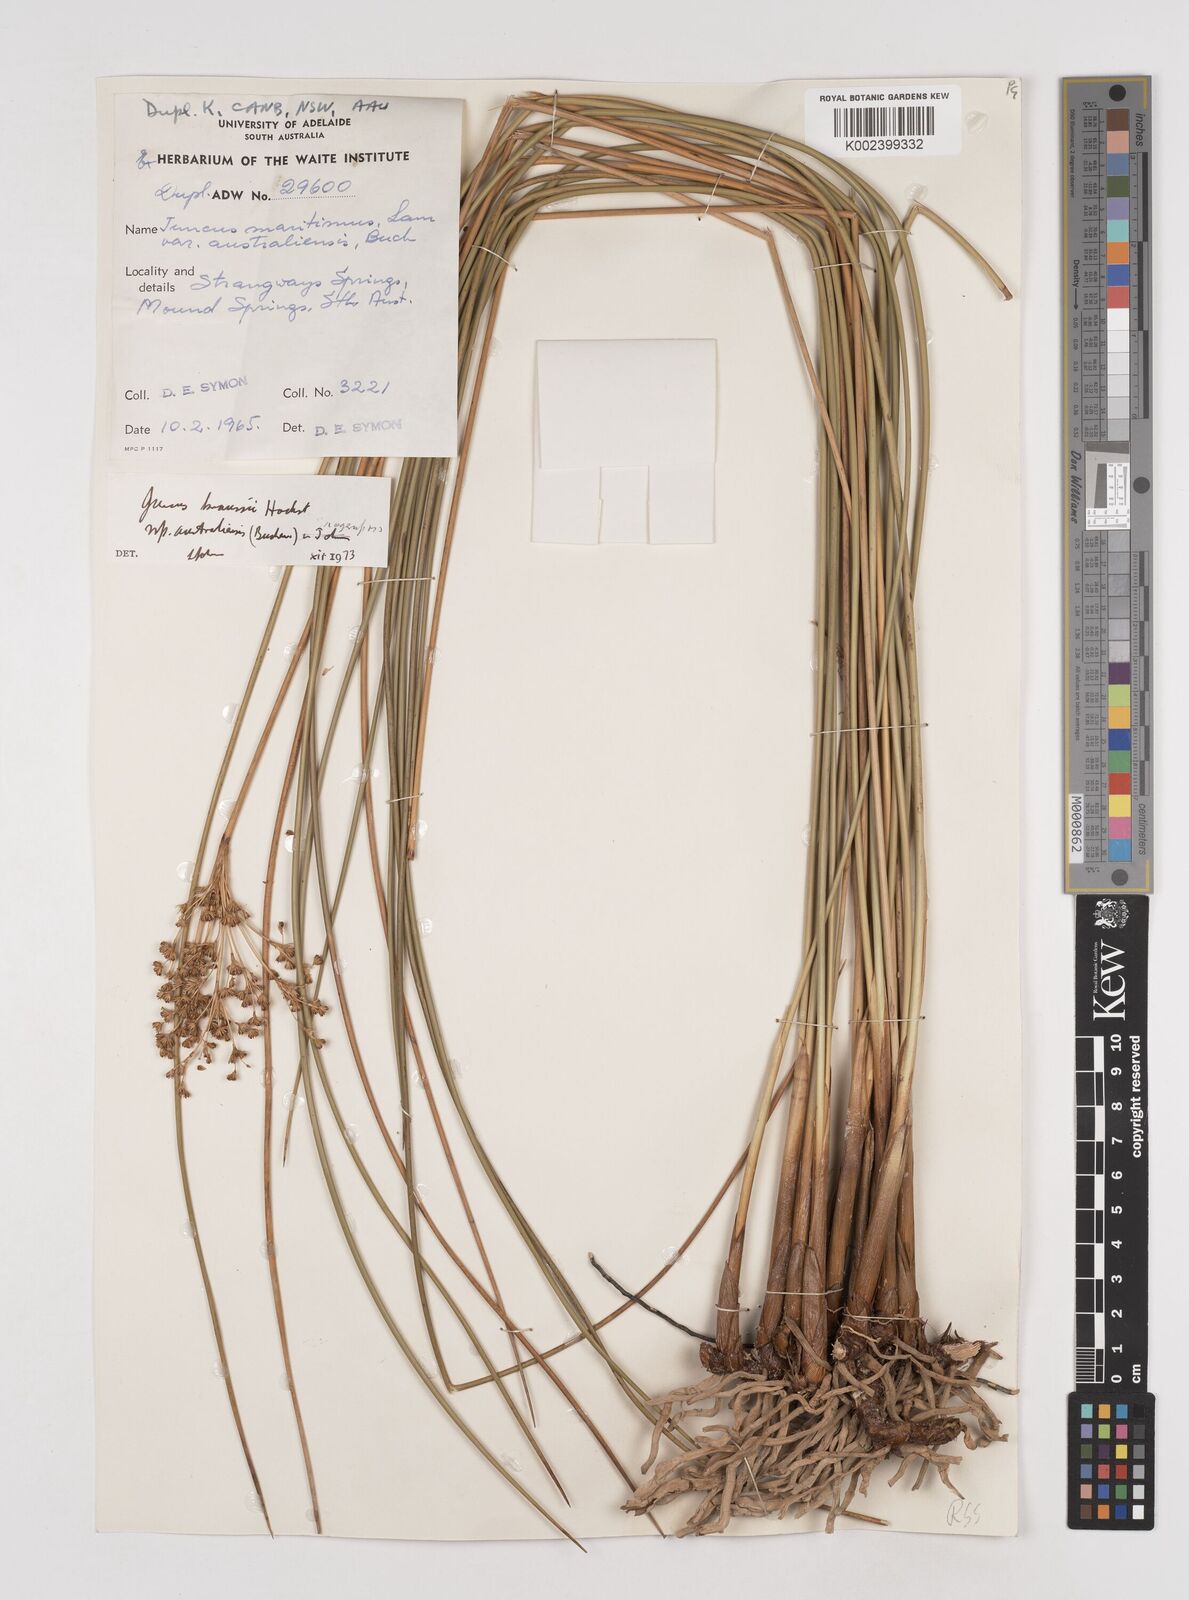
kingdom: Plantae
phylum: Tracheophyta
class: Liliopsida
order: Poales
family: Juncaceae
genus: Juncus
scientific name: Juncus kraussii
